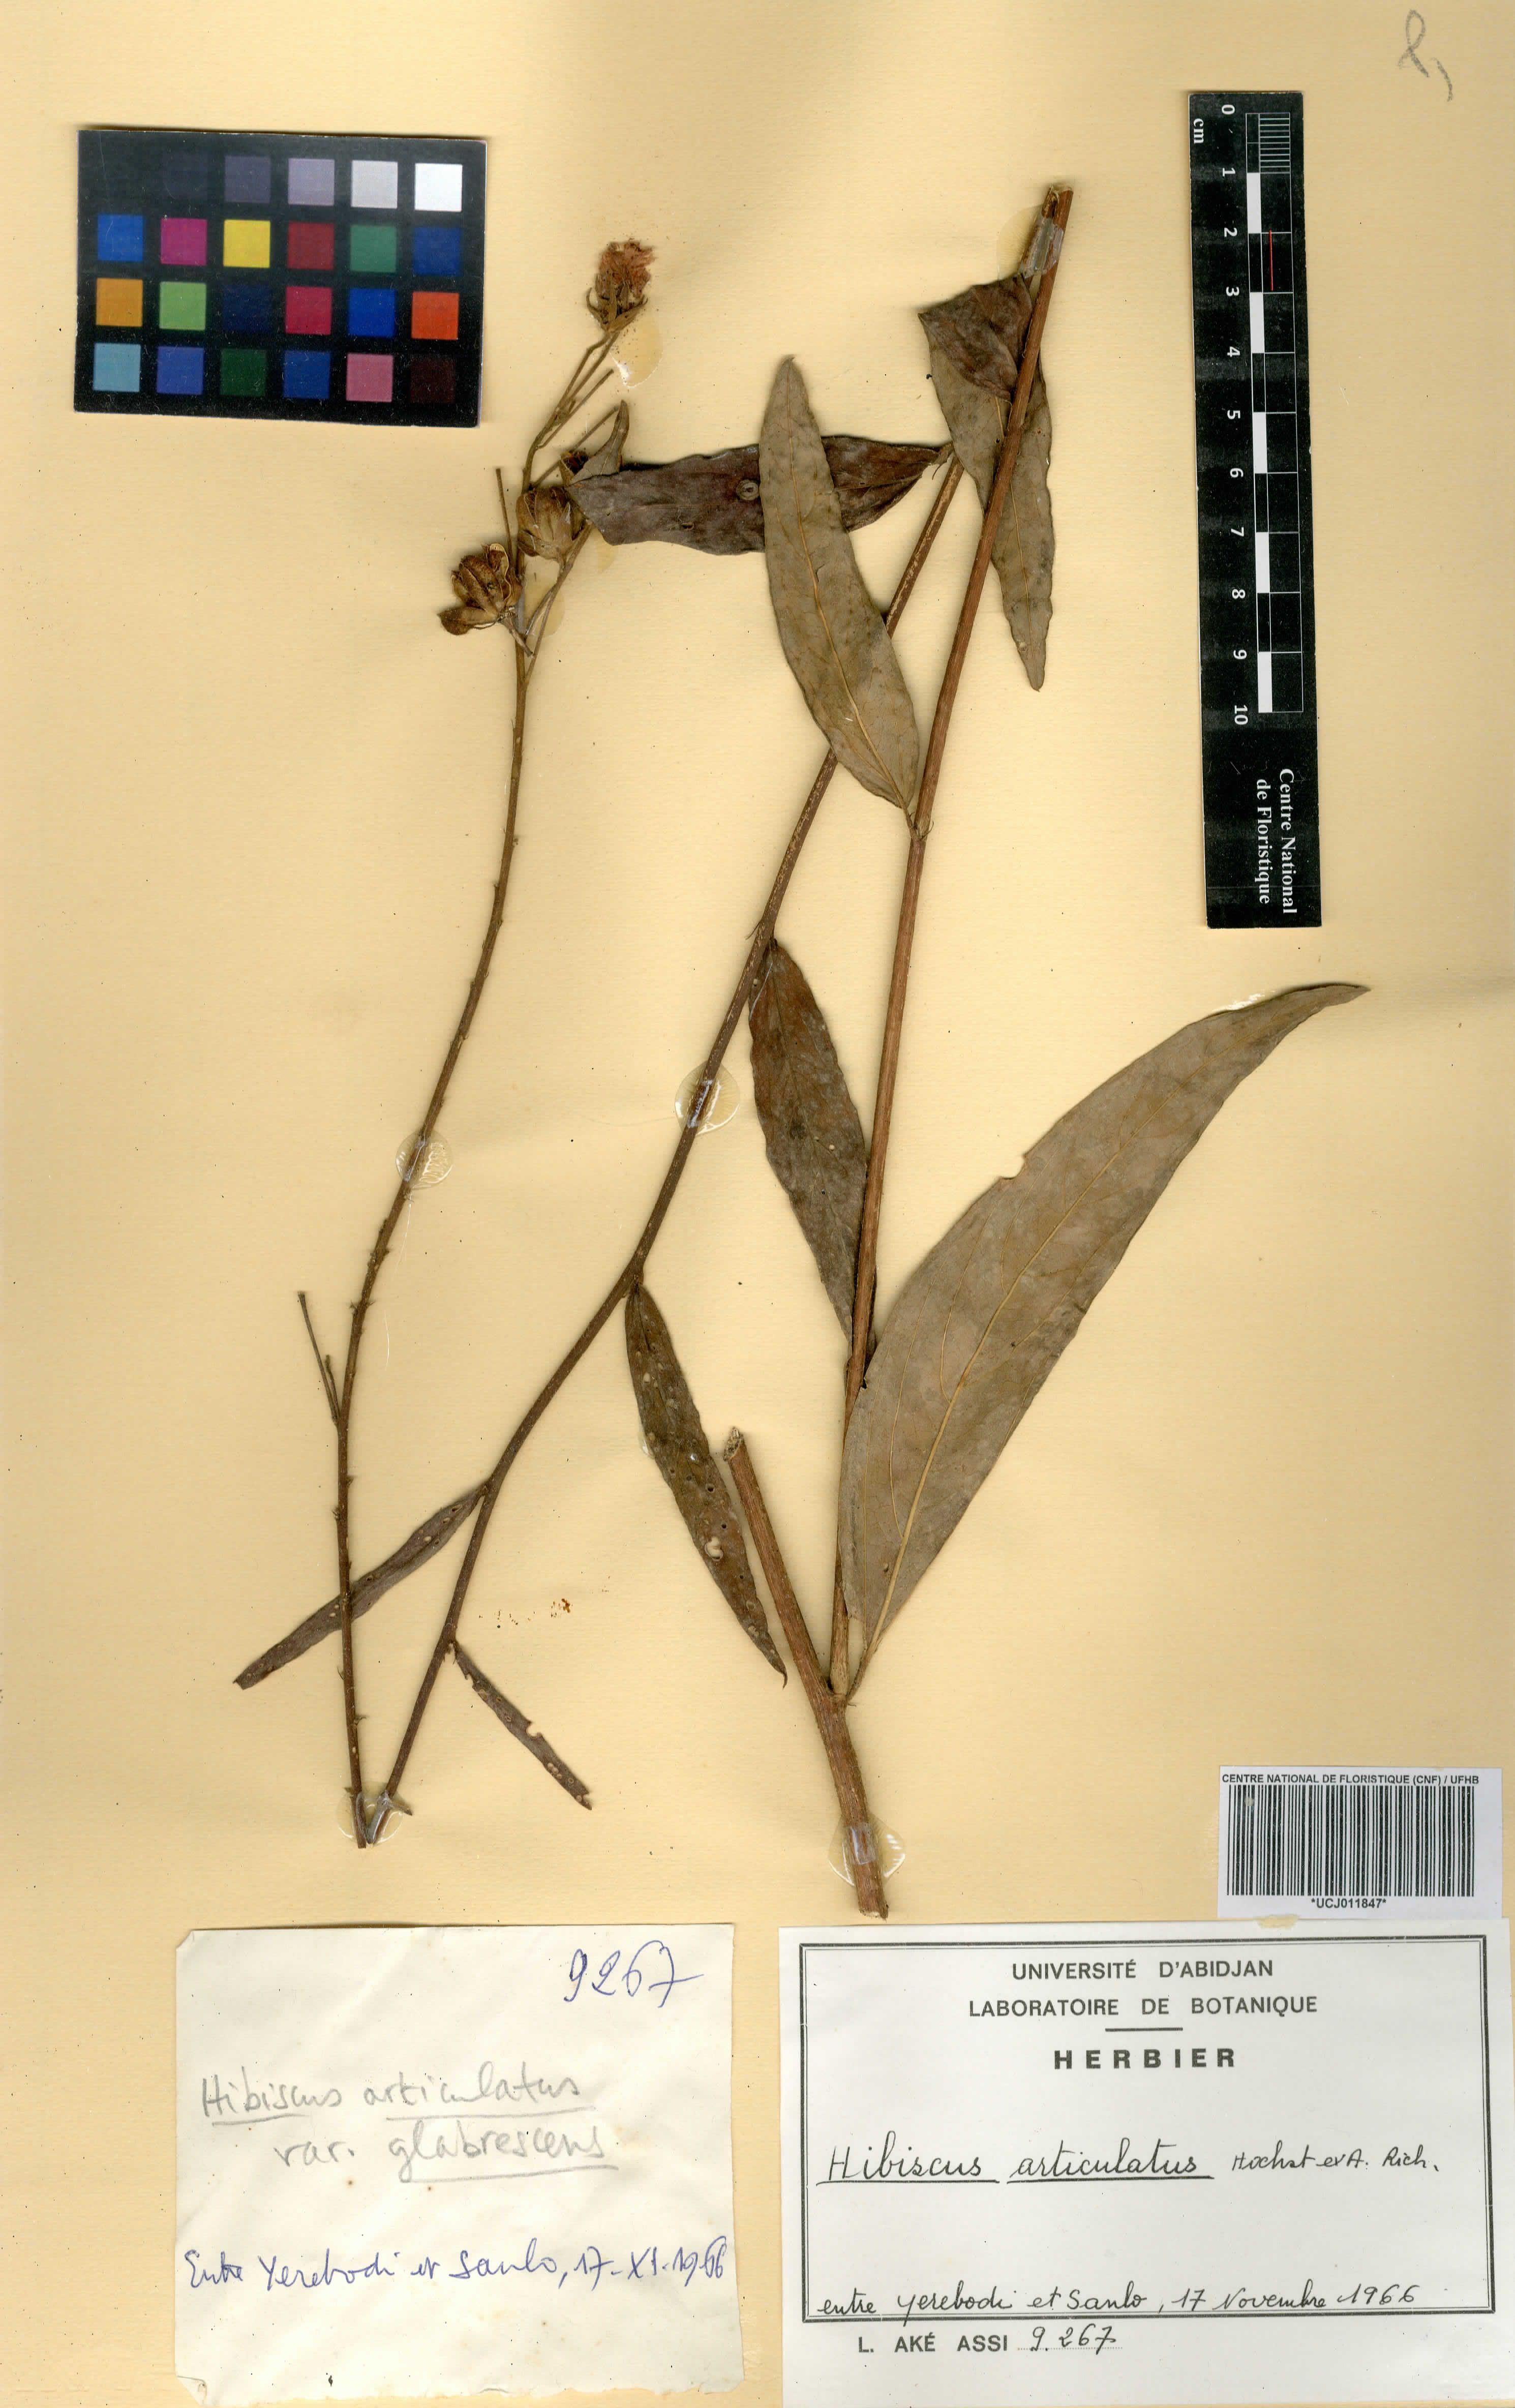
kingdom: Plantae
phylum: Tracheophyta
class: Magnoliopsida
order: Malvales
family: Malvaceae
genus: Hibiscus
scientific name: Hibiscus articulatus
